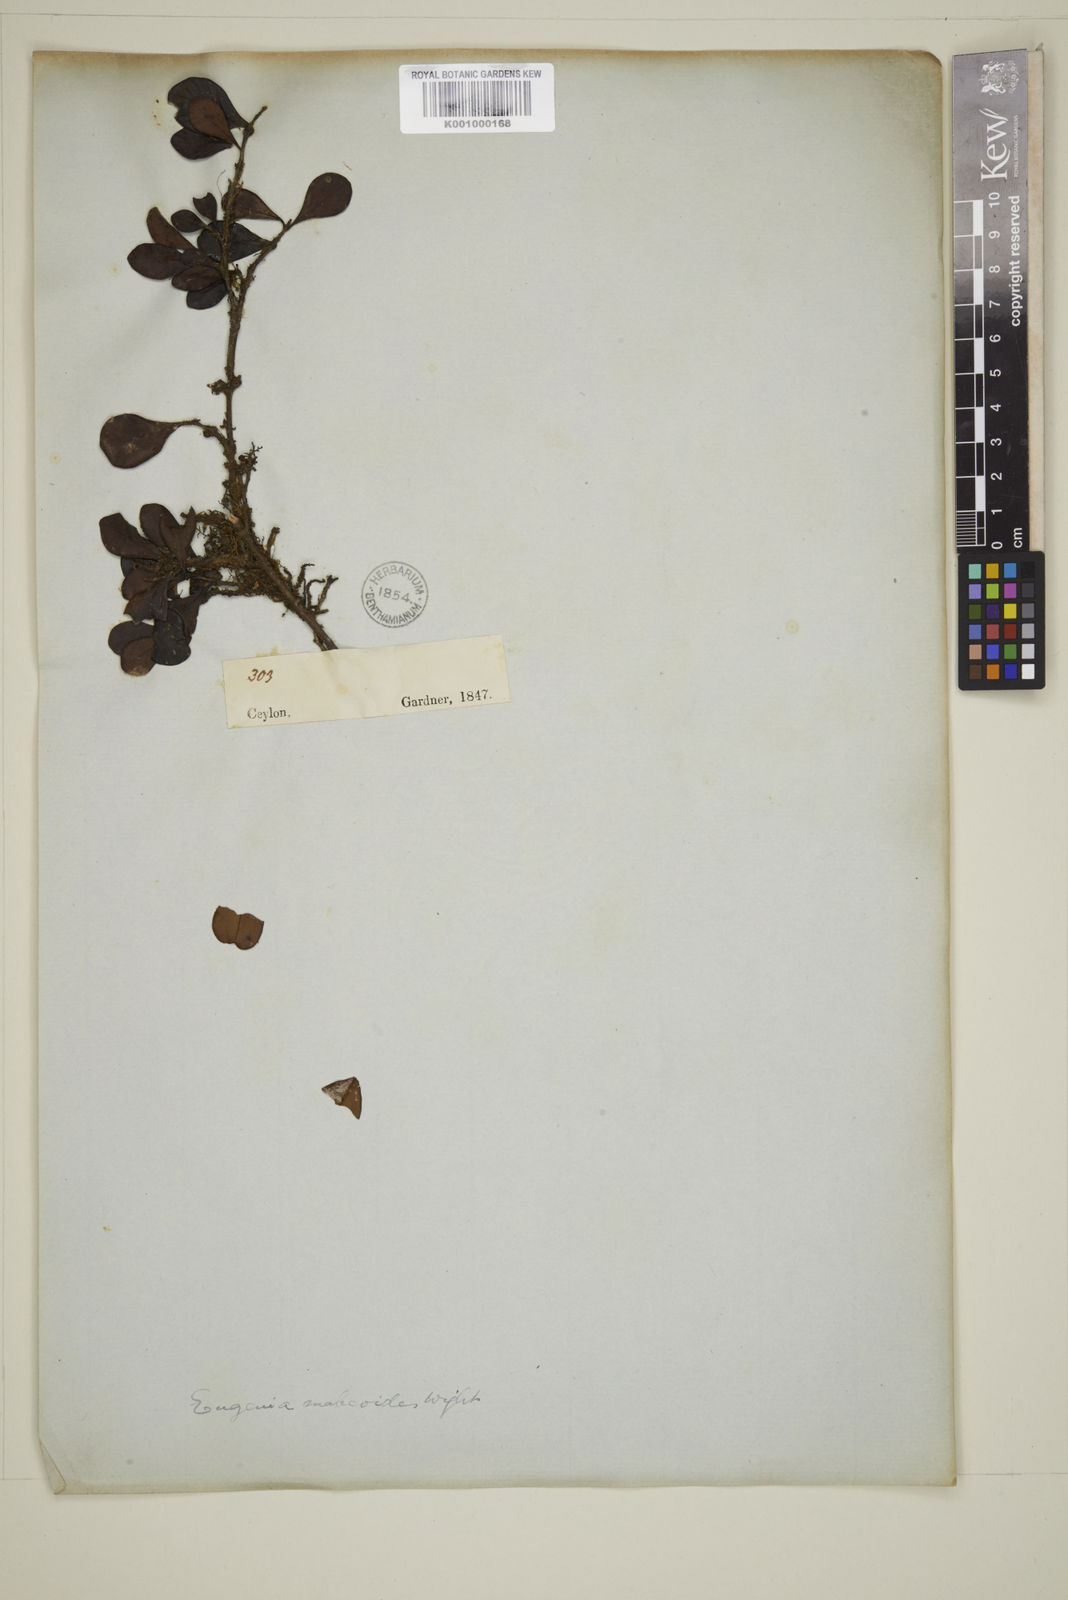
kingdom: Plantae
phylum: Tracheophyta
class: Magnoliopsida
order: Myrtales
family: Myrtaceae
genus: Eugenia
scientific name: Eugenia mabaeoides
